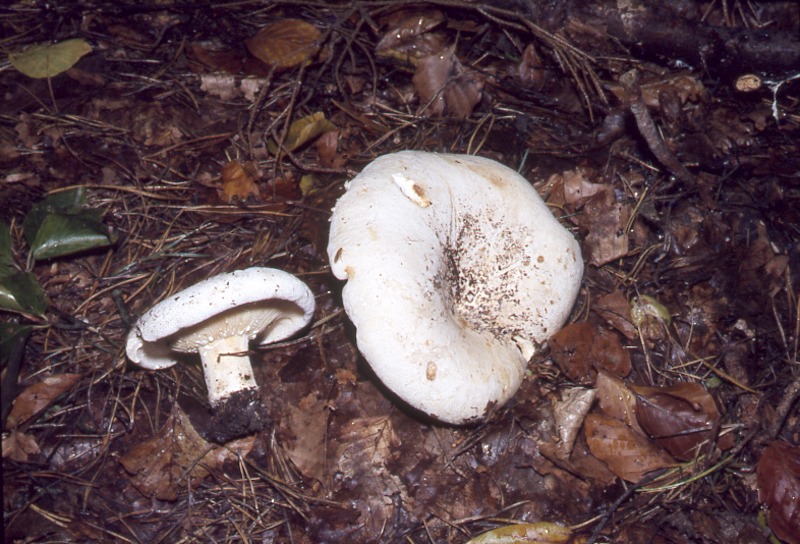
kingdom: Fungi
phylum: Basidiomycota
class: Agaricomycetes
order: Russulales
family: Russulaceae
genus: Lactifluus
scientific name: Lactifluus vellereus
